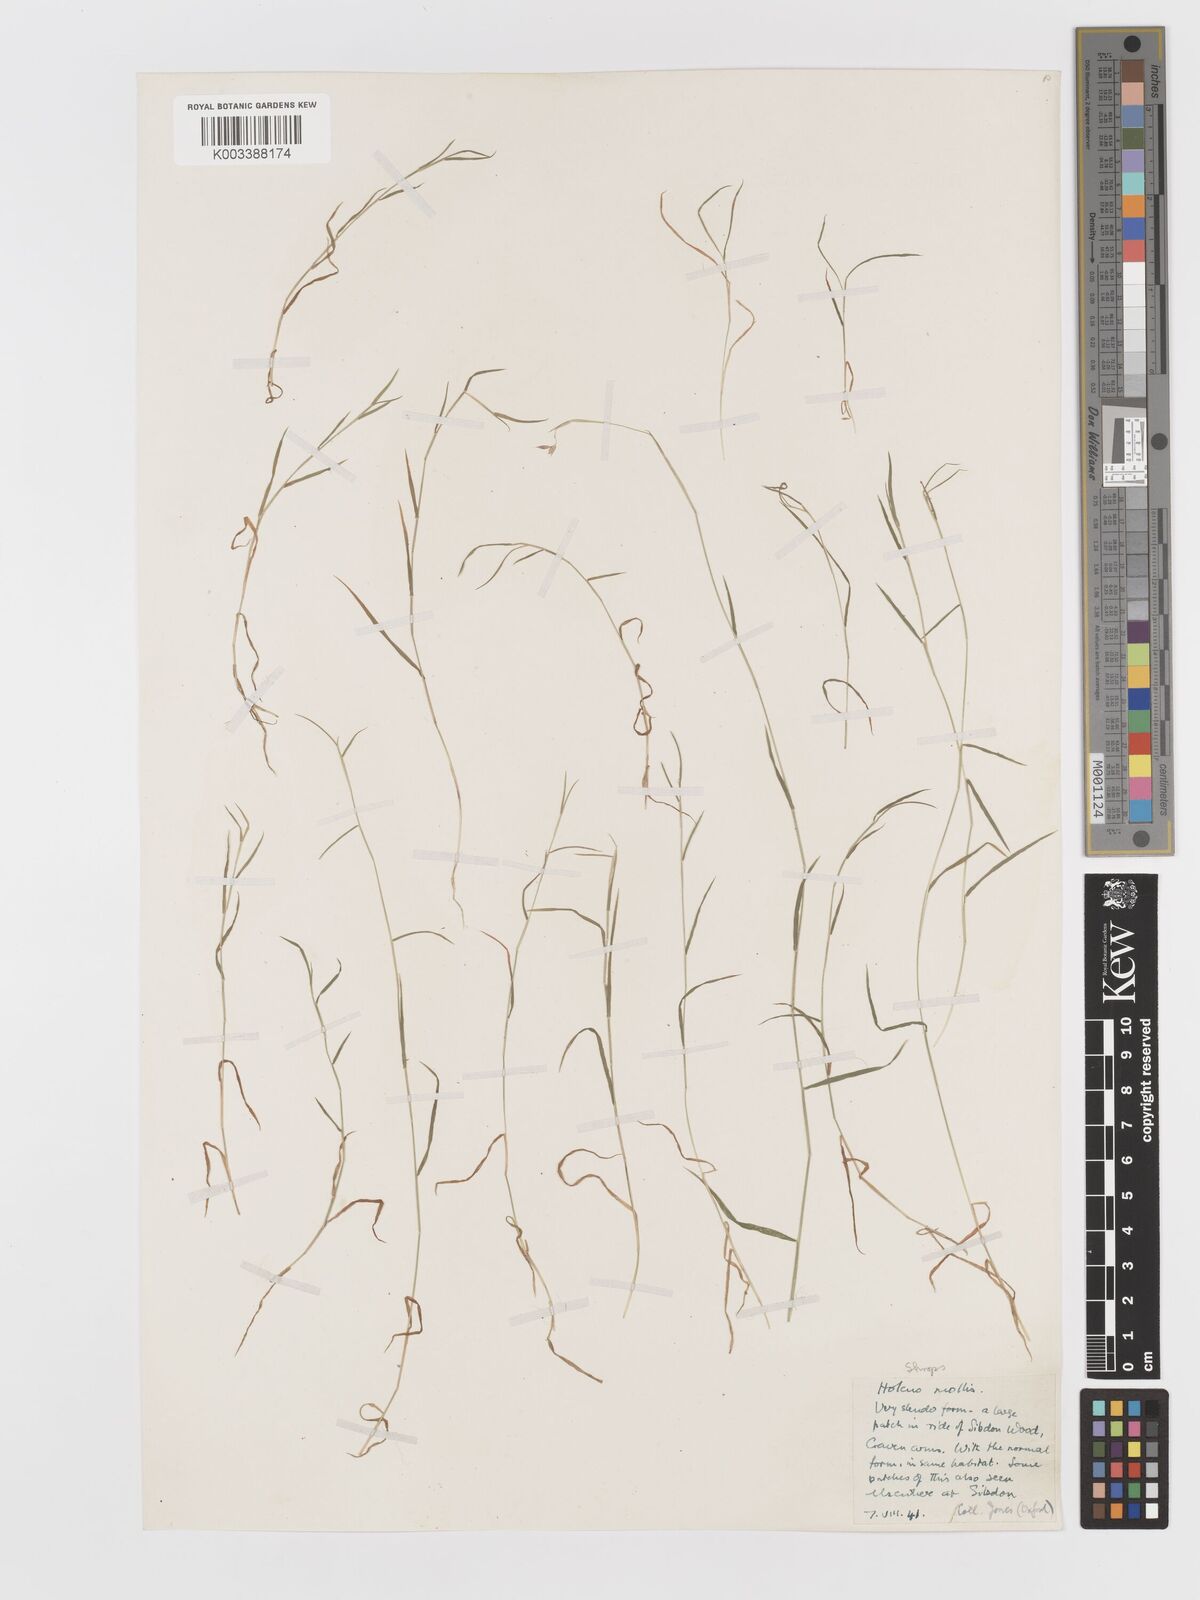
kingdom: Plantae
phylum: Tracheophyta
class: Liliopsida
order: Poales
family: Poaceae
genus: Holcus
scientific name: Holcus mollis
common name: Creeping velvetgrass
